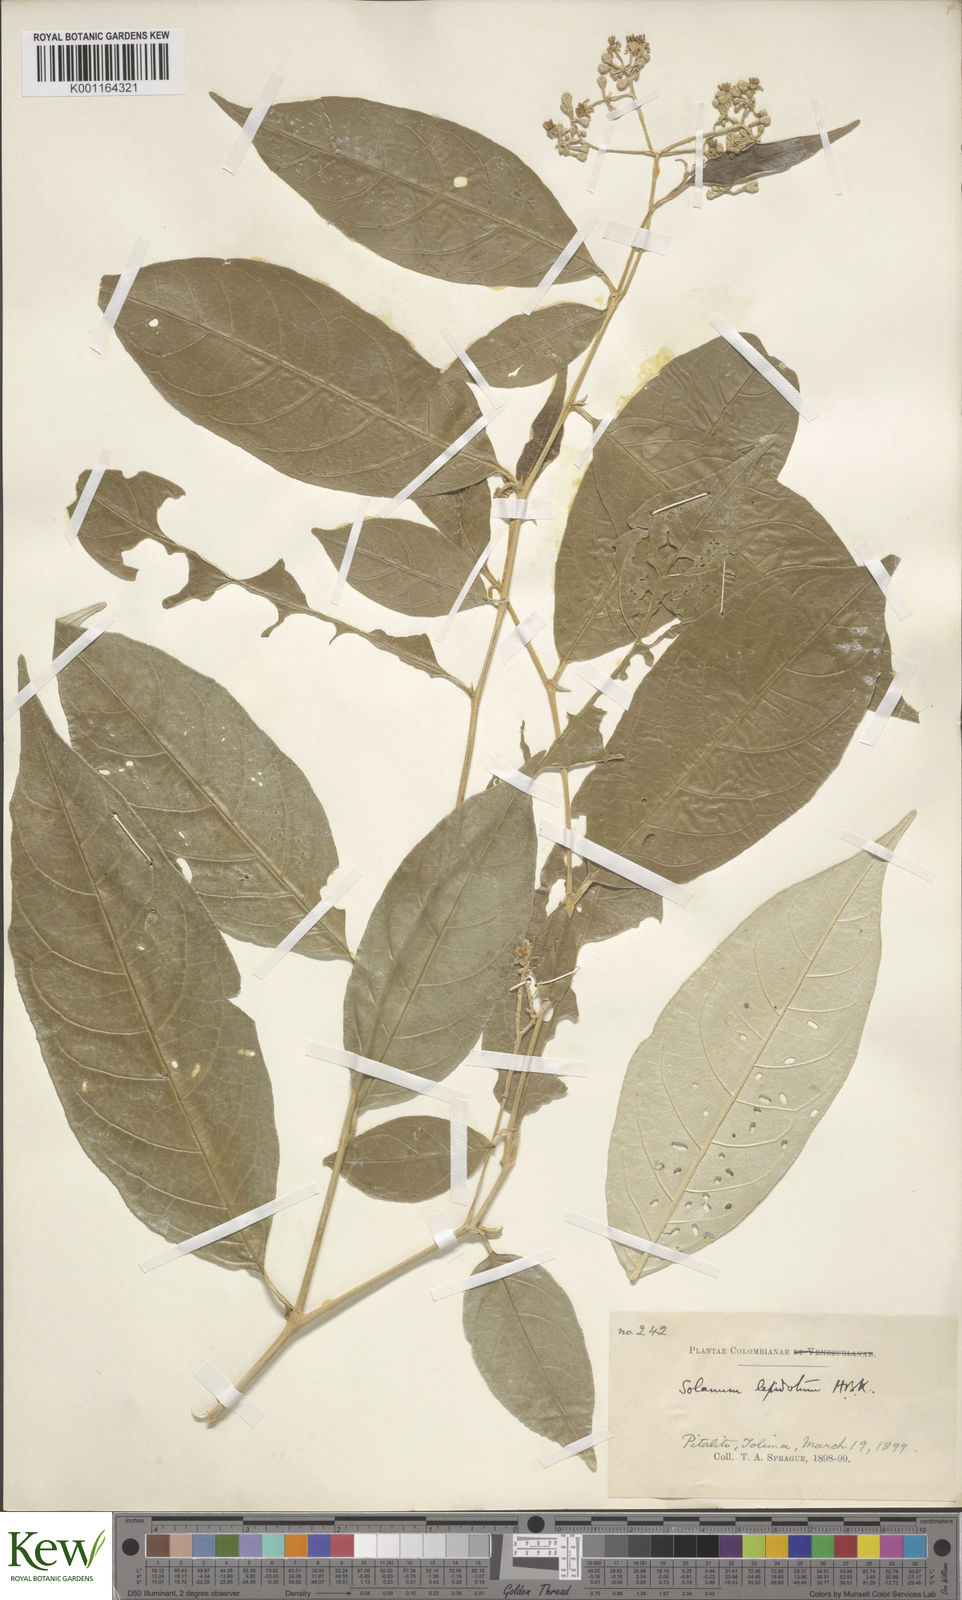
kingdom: Plantae
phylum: Tracheophyta
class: Magnoliopsida
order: Solanales
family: Solanaceae
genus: Solanum
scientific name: Solanum lepidotum
